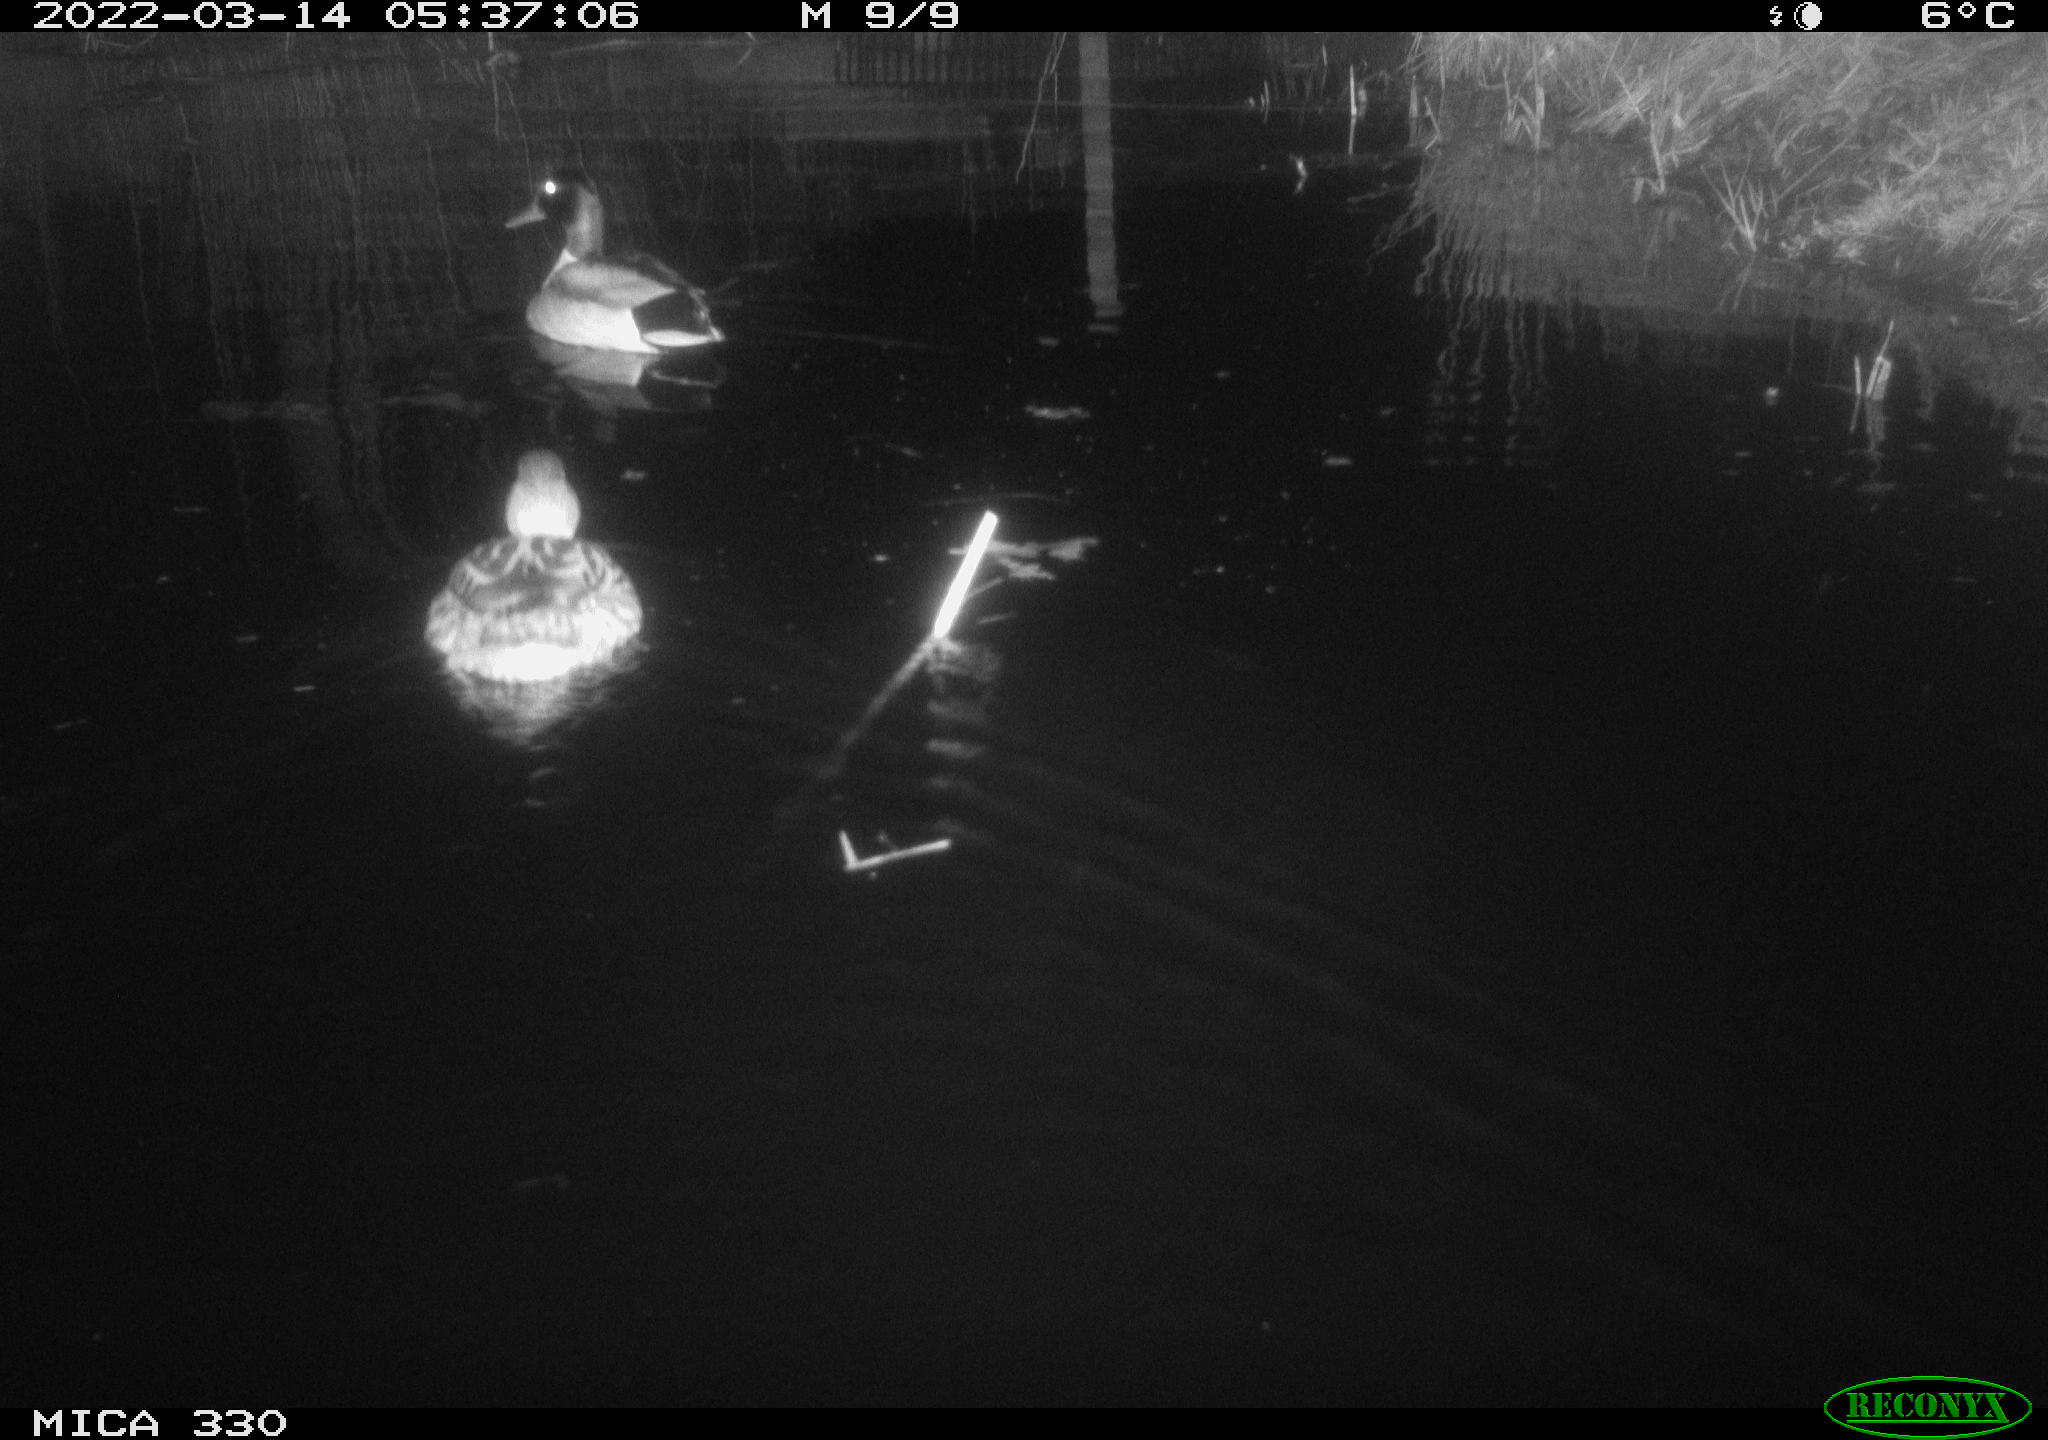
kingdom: Animalia
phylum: Chordata
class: Aves
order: Anseriformes
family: Anatidae
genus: Anas
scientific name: Anas platyrhynchos
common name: Mallard
